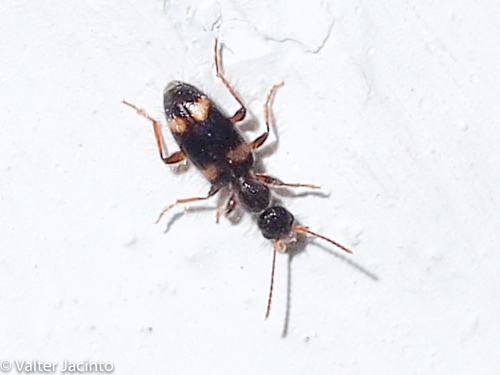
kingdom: Animalia
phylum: Arthropoda
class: Insecta
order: Coleoptera
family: Anthicidae
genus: Hirticollis
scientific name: Hirticollis Hirticomus quadriguttatus
